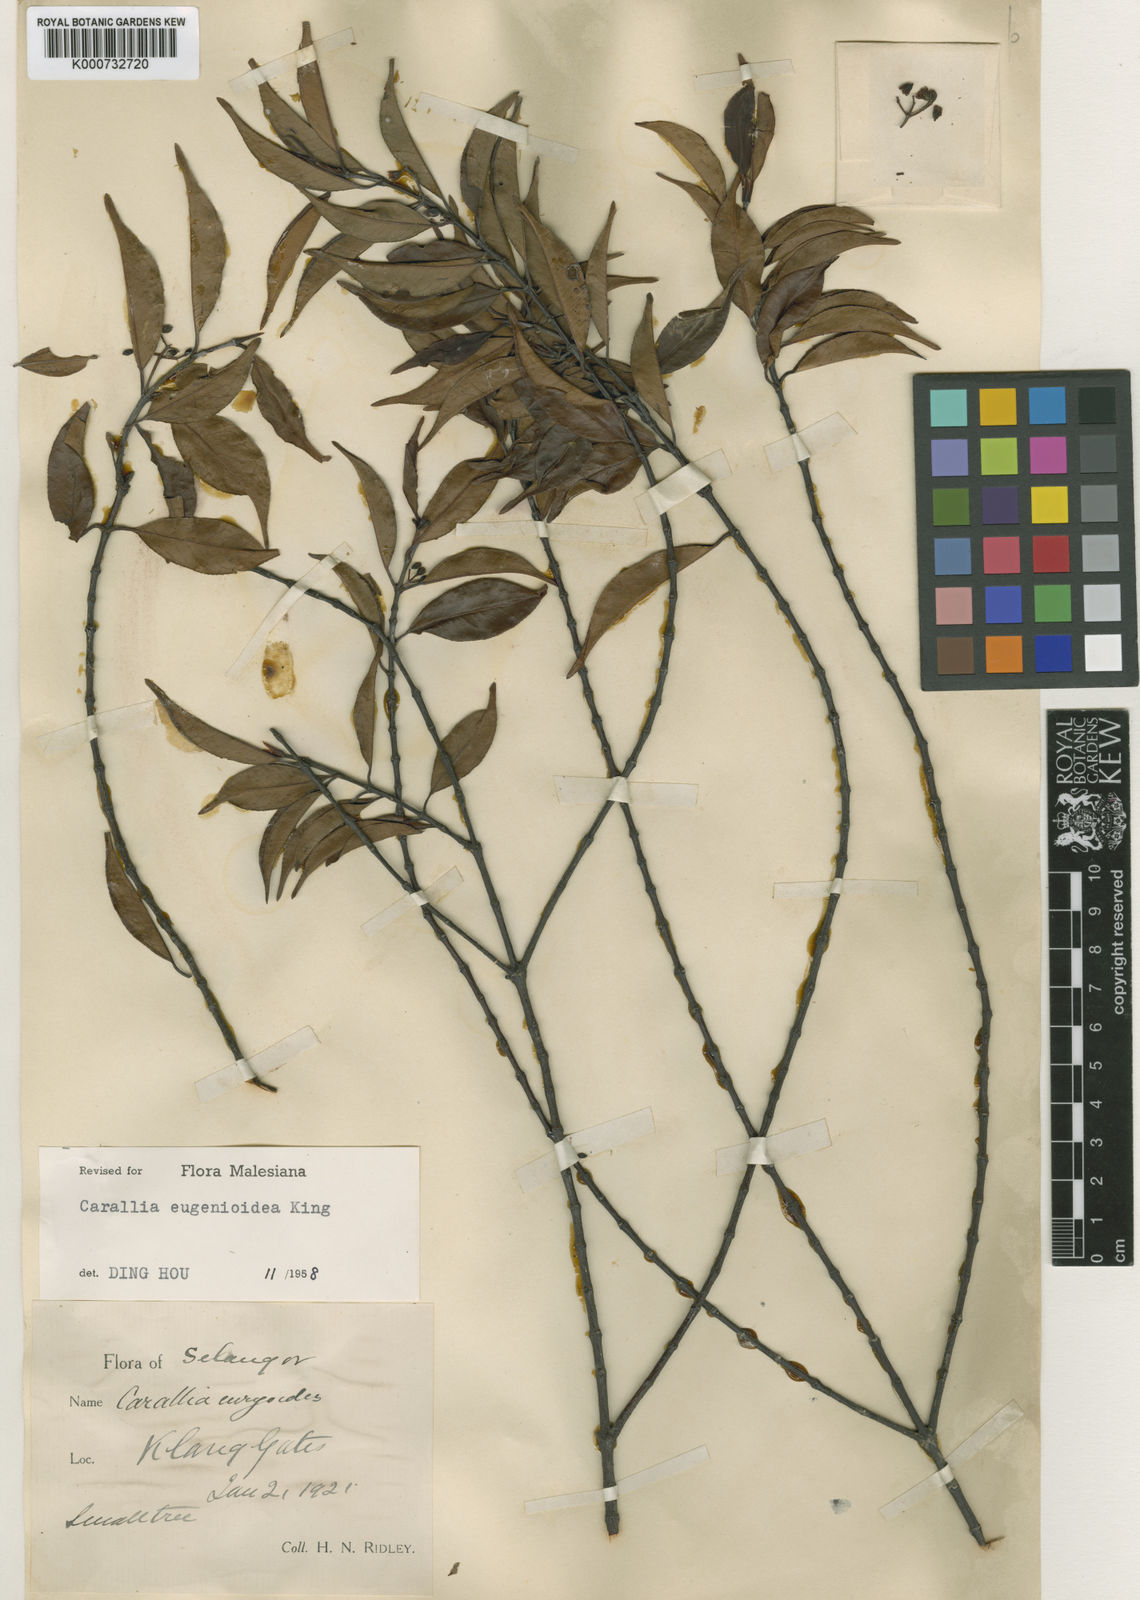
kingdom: Plantae
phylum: Tracheophyta
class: Magnoliopsida
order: Malpighiales
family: Rhizophoraceae
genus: Carallia
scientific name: Carallia
